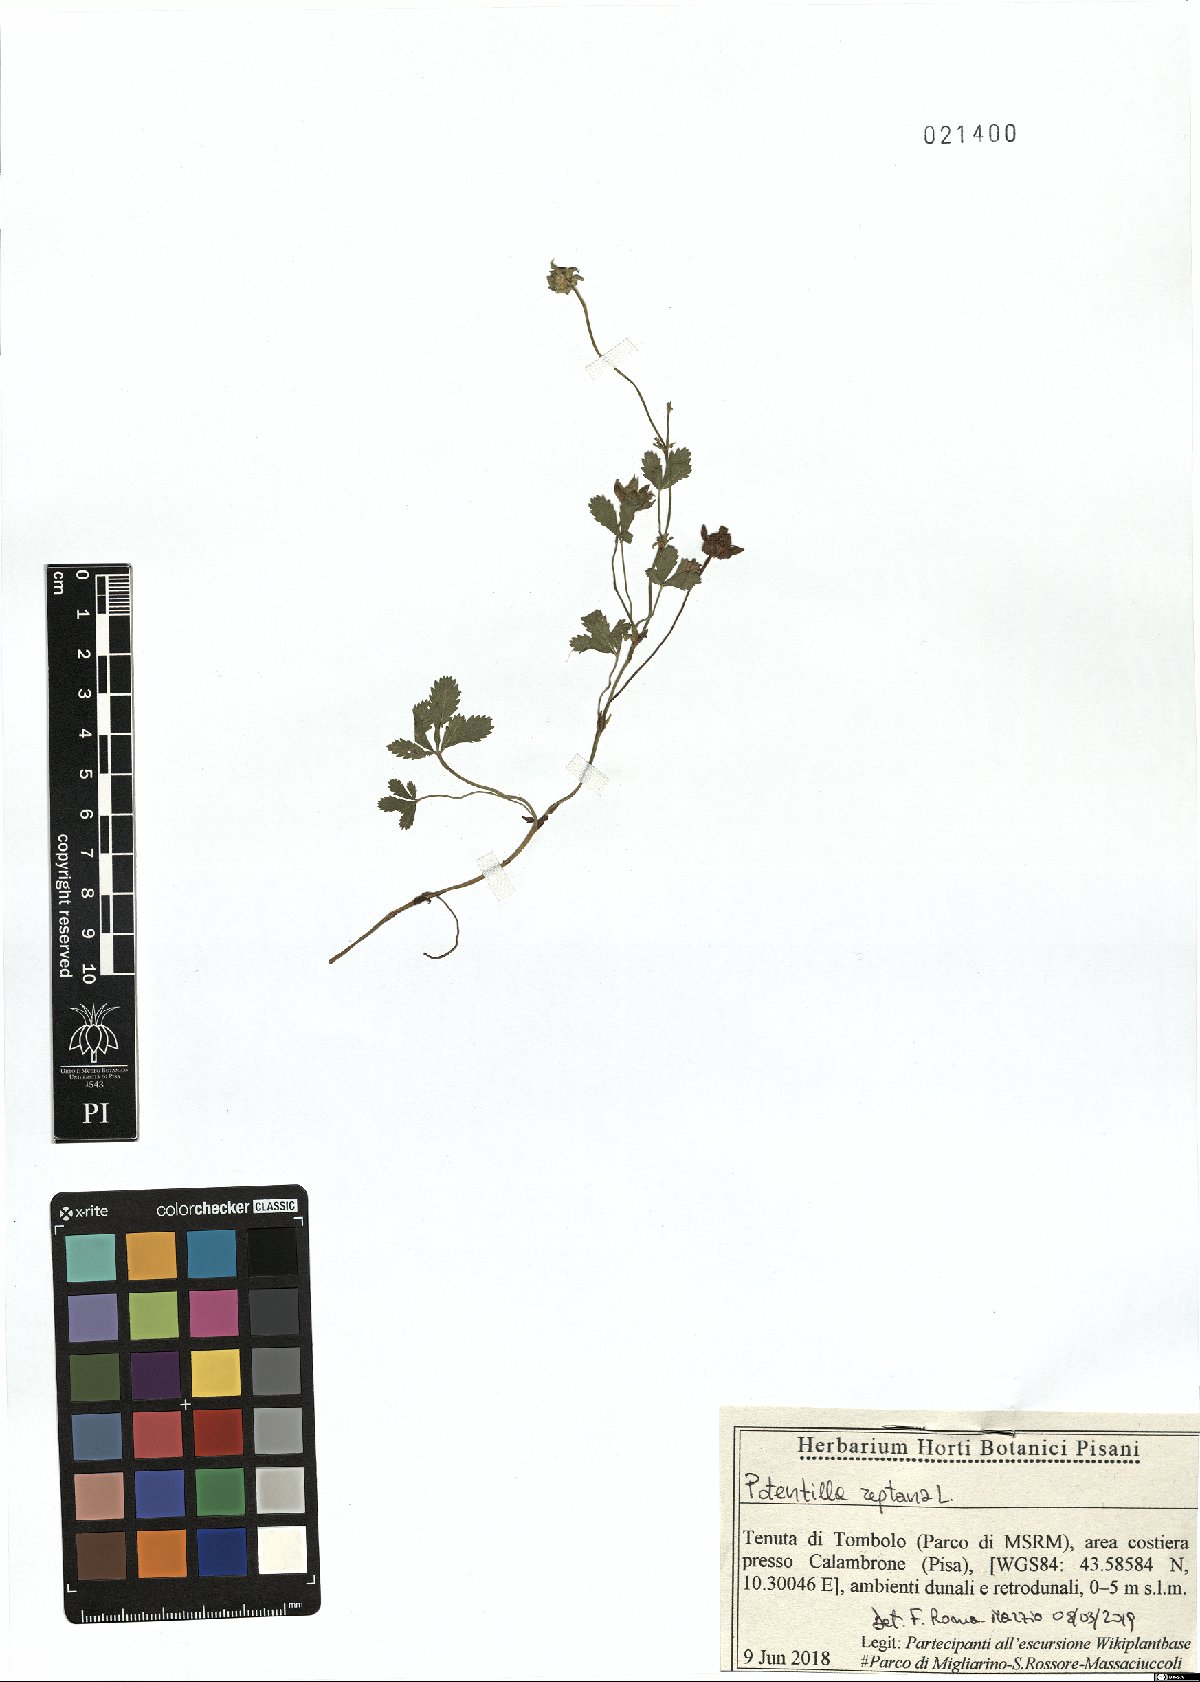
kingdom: Plantae
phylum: Tracheophyta
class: Magnoliopsida
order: Rosales
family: Rosaceae
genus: Potentilla
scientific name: Potentilla reptans
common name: Creeping cinquefoil
